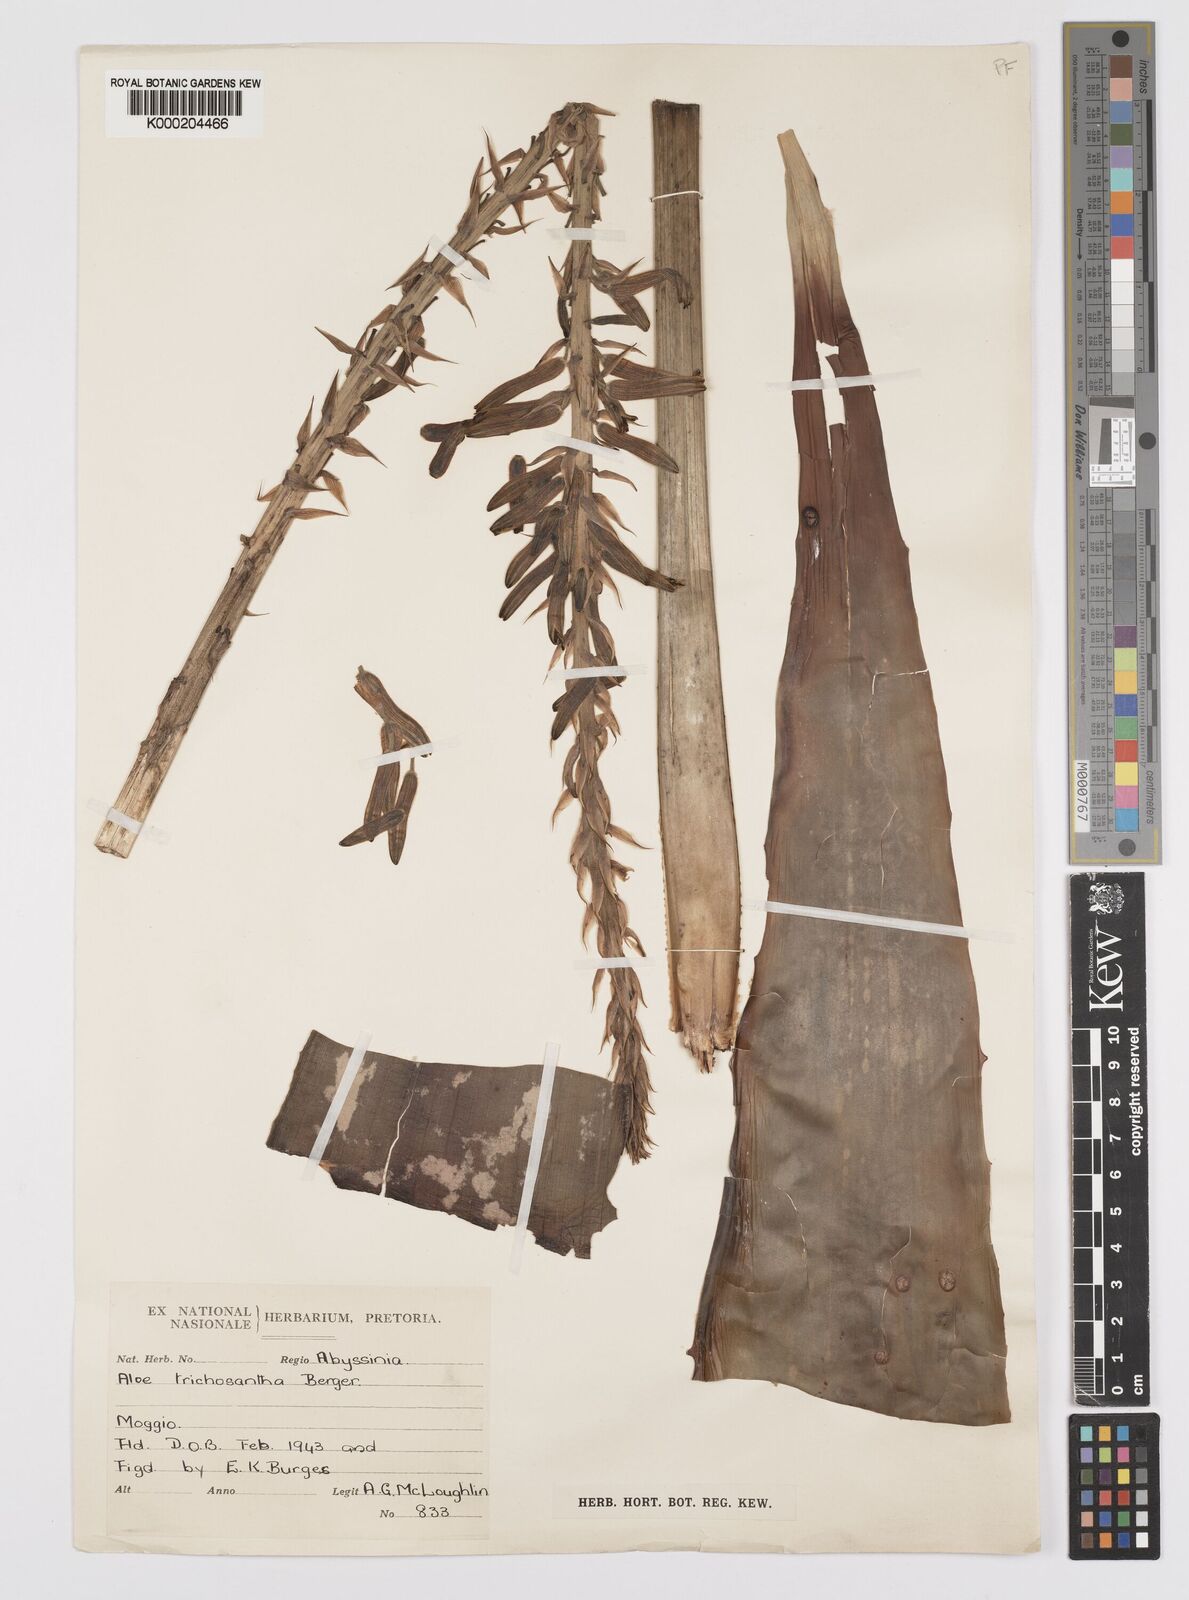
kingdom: Plantae
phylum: Tracheophyta
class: Liliopsida
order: Asparagales
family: Asphodelaceae
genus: Aloe
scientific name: Aloe trichosantha
